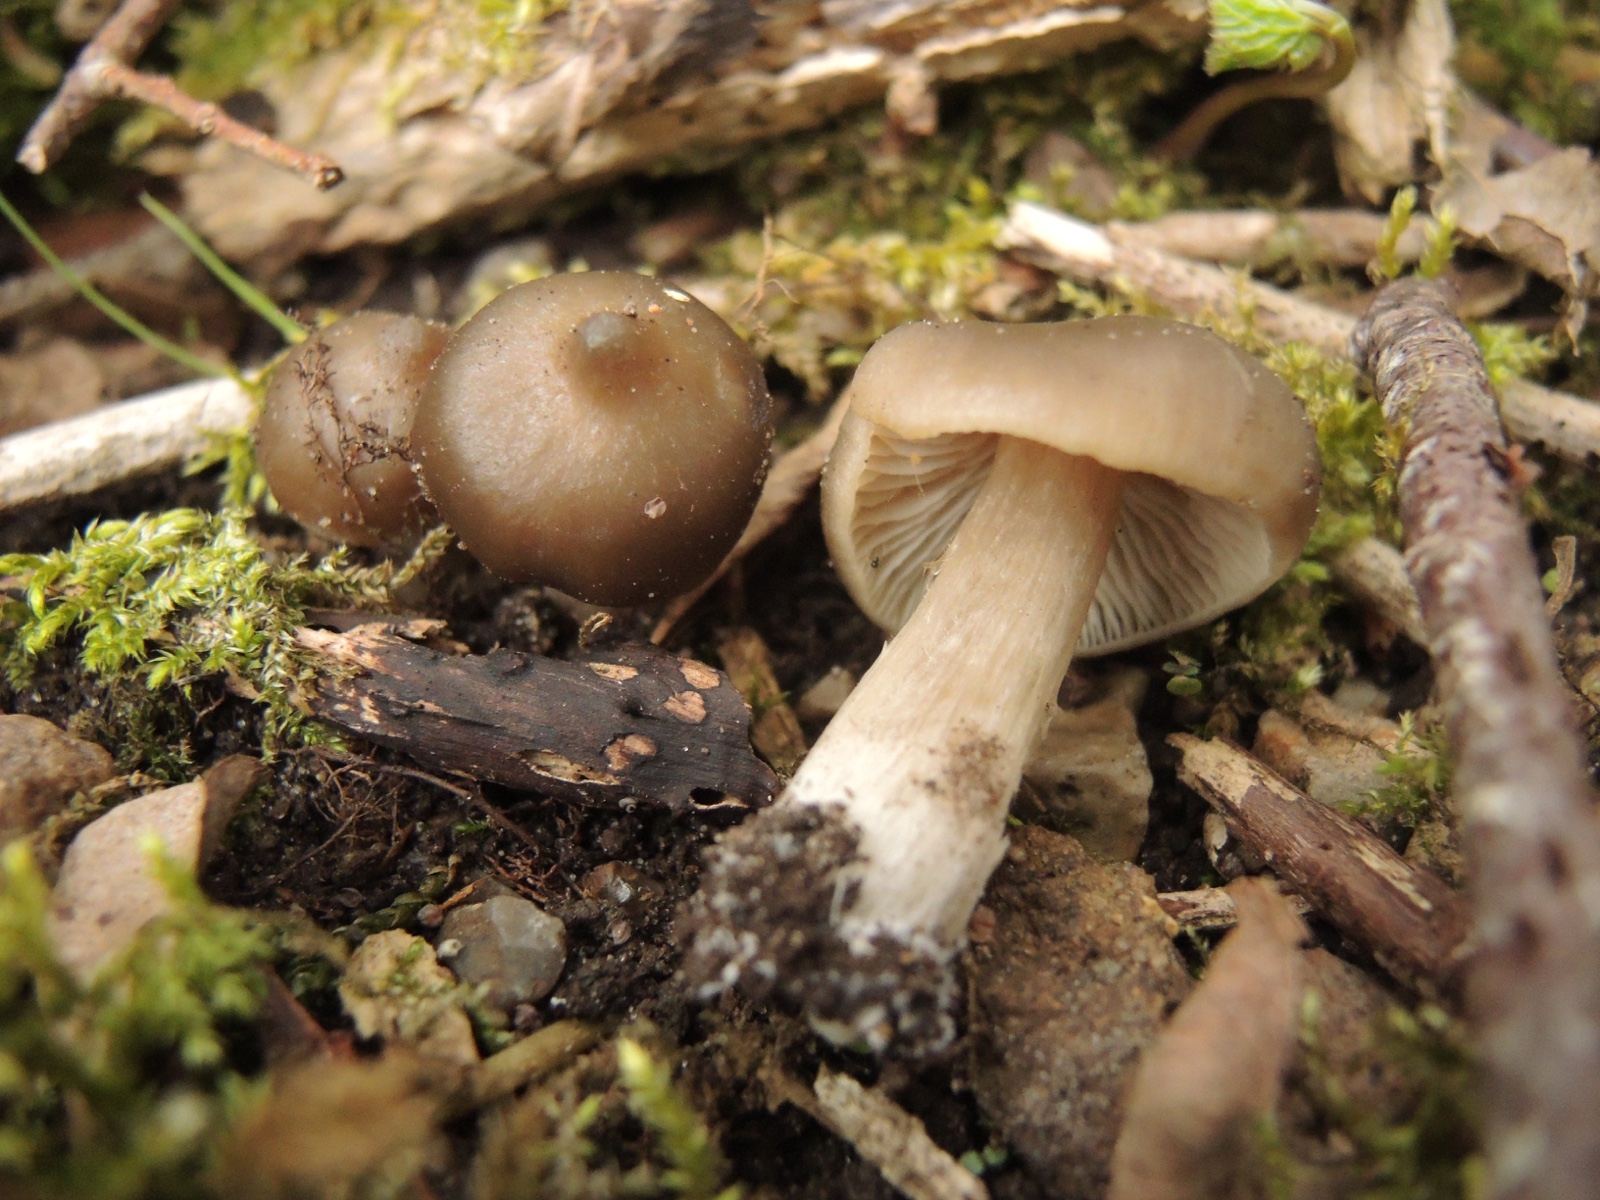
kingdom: Fungi
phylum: Basidiomycota
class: Agaricomycetes
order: Agaricales
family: Entolomataceae
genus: Entoloma
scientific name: Entoloma aprile
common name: maj-rødblad
